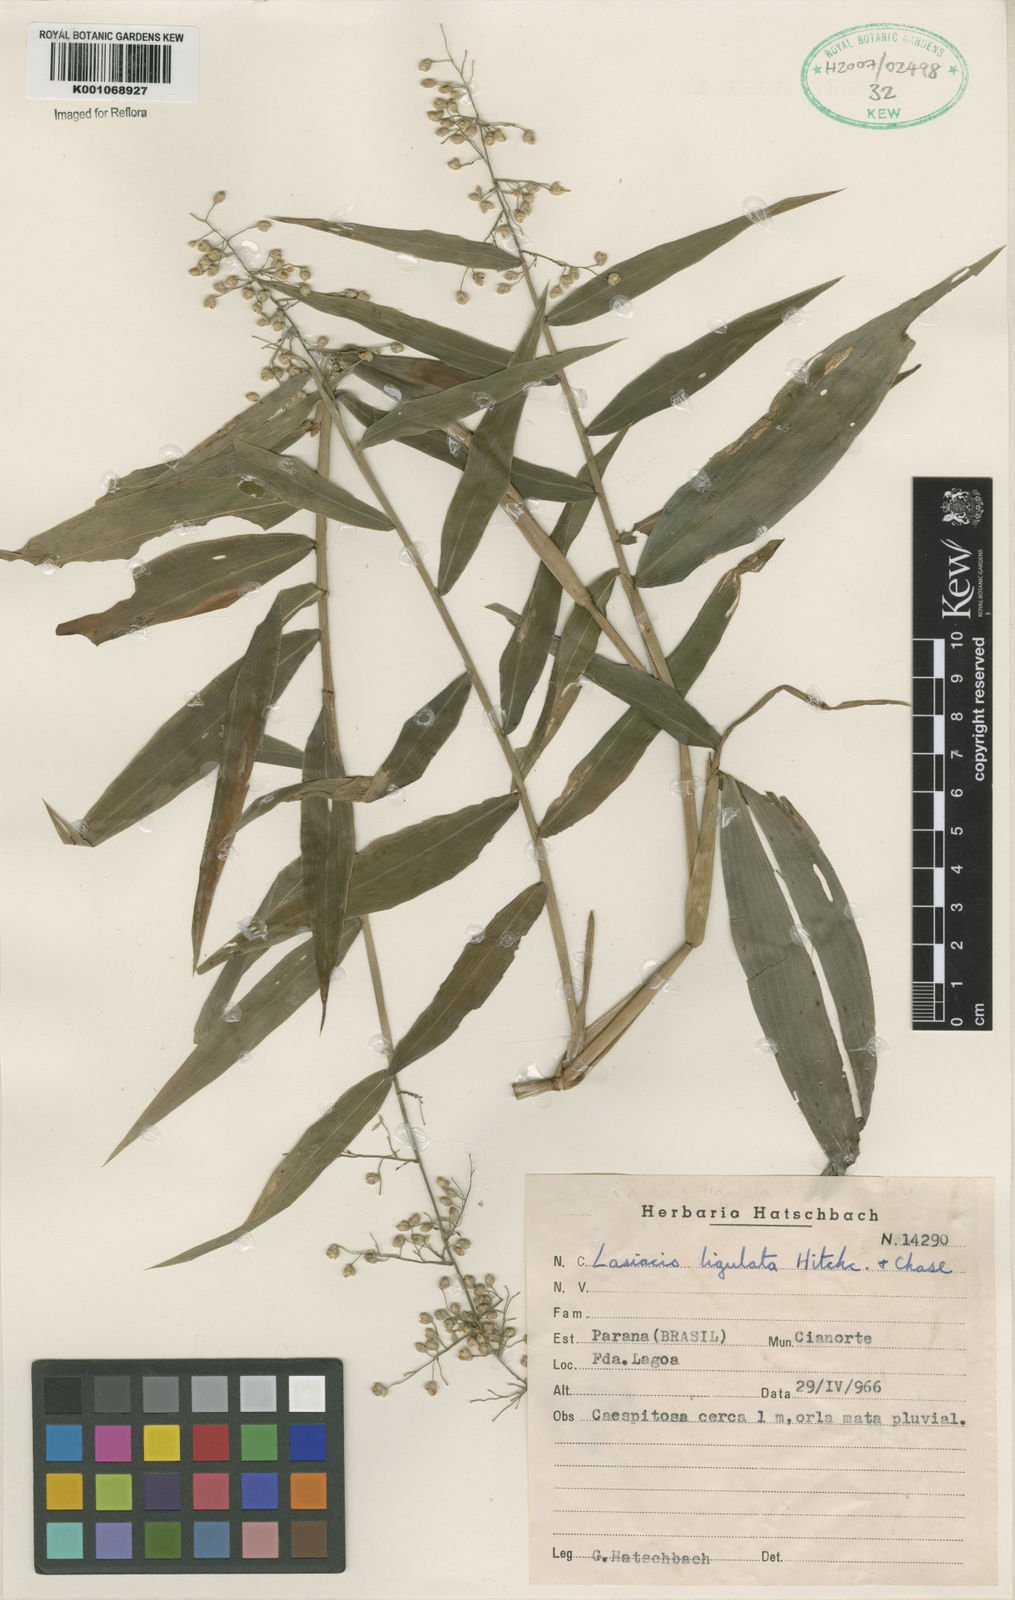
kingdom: Plantae
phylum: Tracheophyta
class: Liliopsida
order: Poales
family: Poaceae
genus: Lasiacis
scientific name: Lasiacis ligulata
